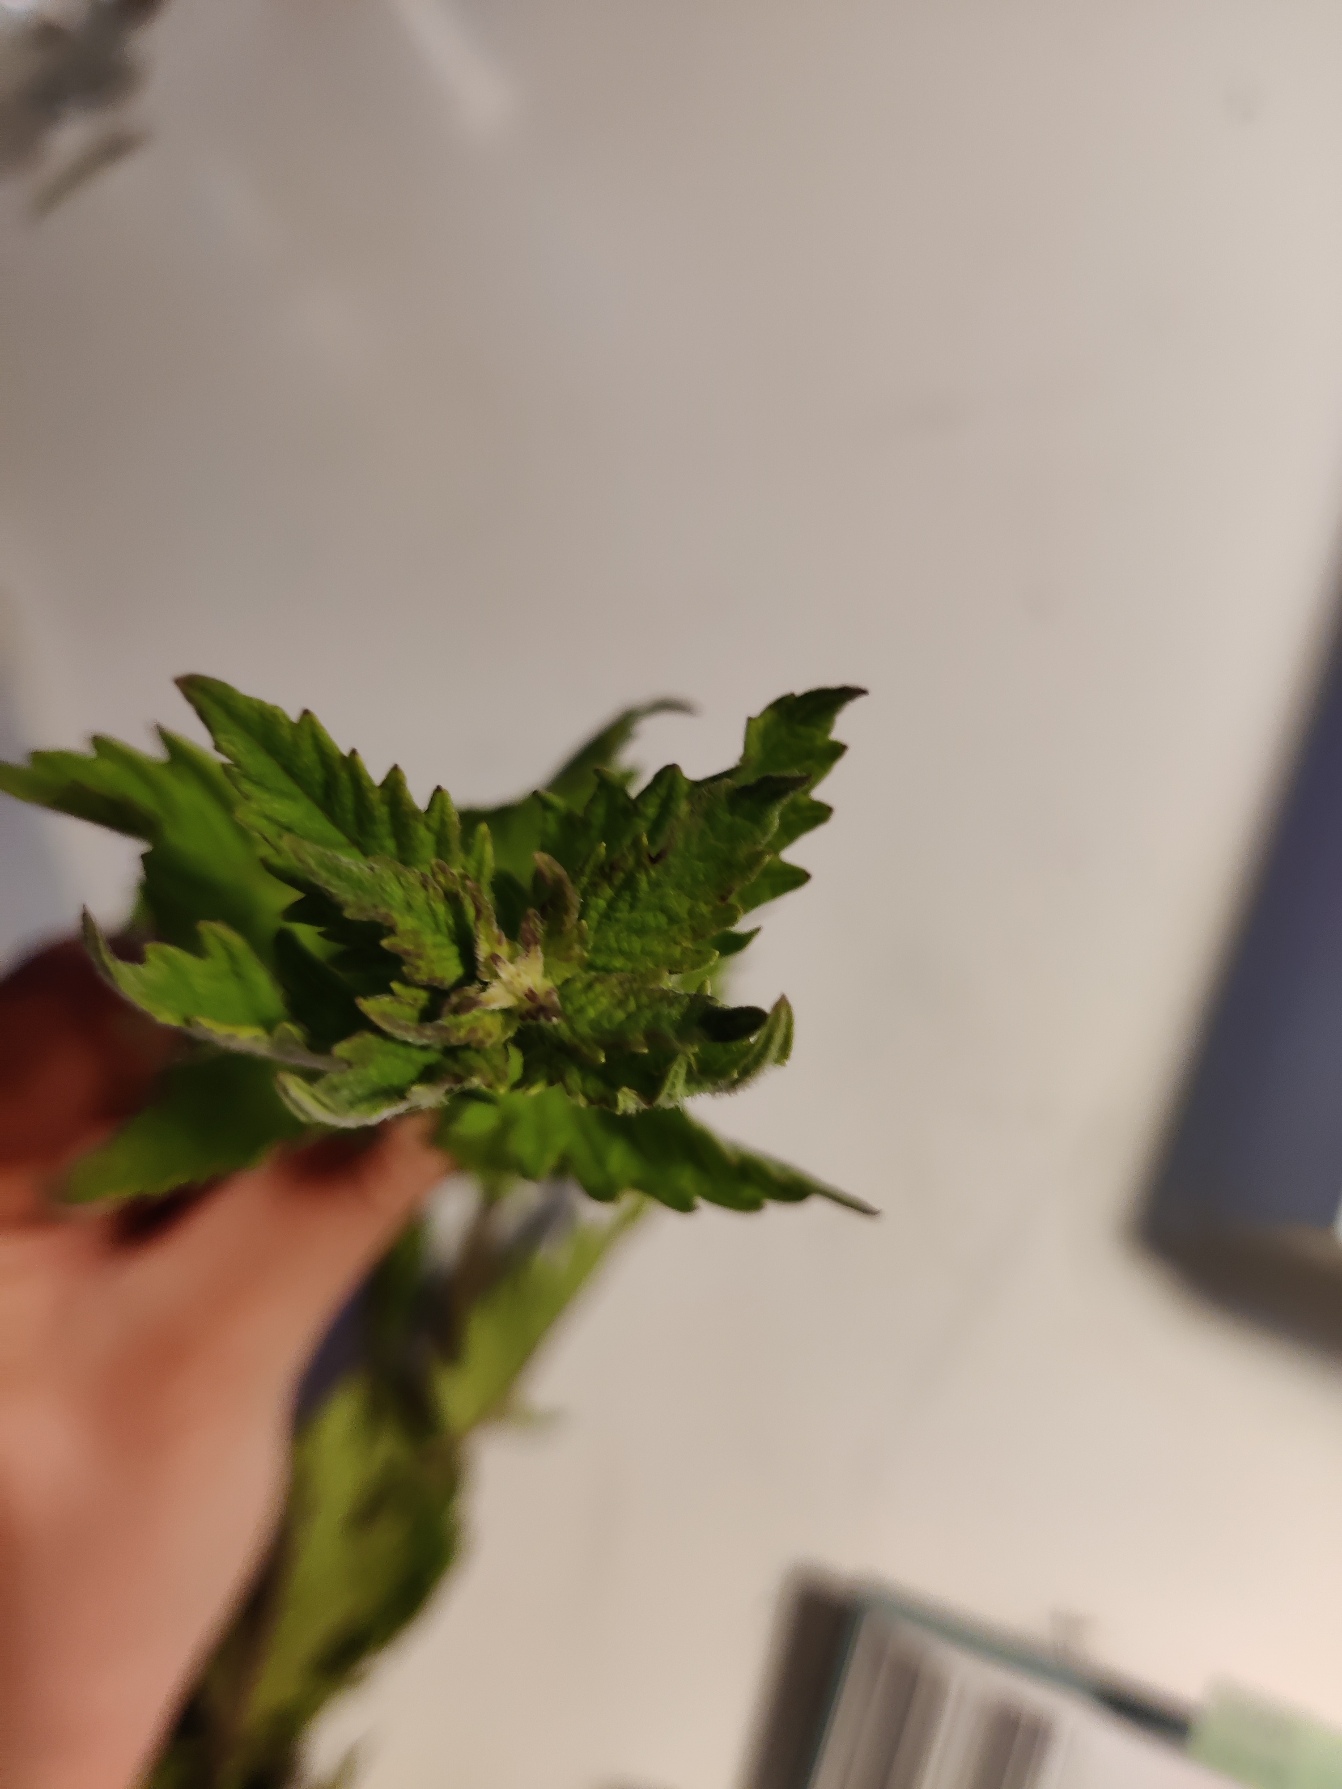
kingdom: Plantae
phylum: Tracheophyta
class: Magnoliopsida
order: Lamiales
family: Lamiaceae
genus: Lycopus
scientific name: Lycopus europaeus
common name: Sværtevæld
